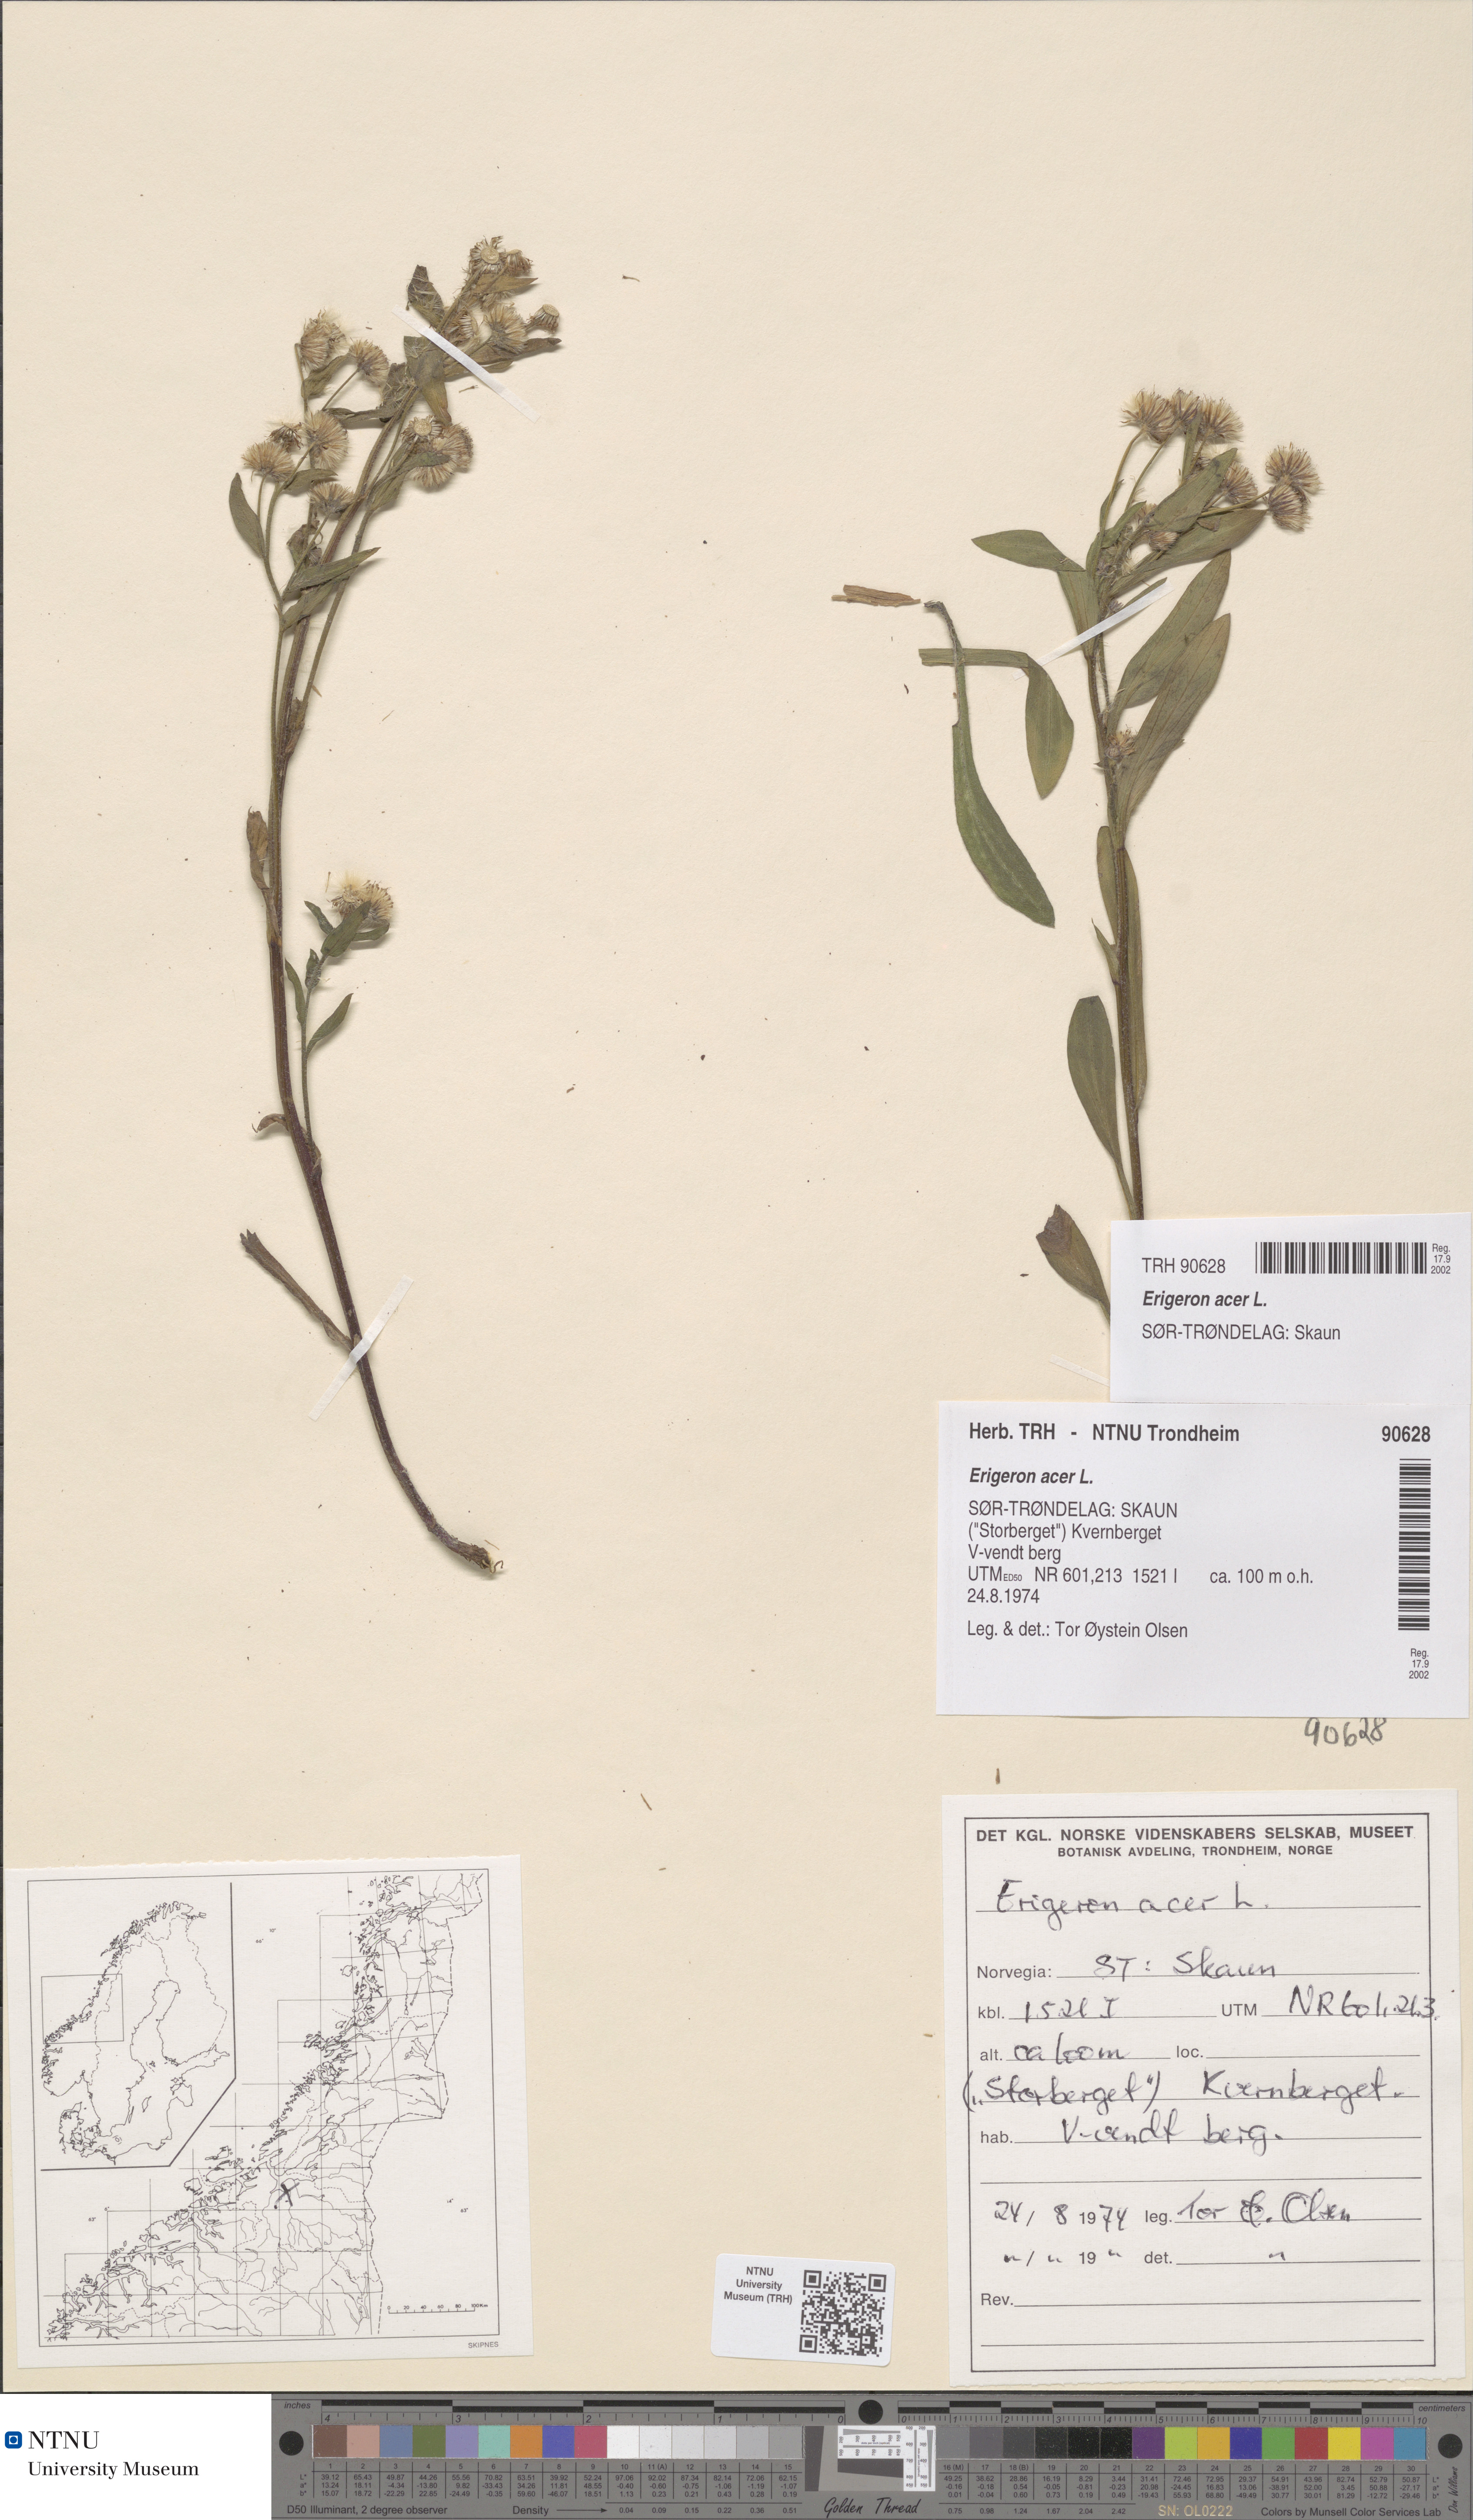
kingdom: Plantae
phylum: Tracheophyta
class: Magnoliopsida
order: Asterales
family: Asteraceae
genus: Erigeron
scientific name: Erigeron acris
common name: Blue fleabane
